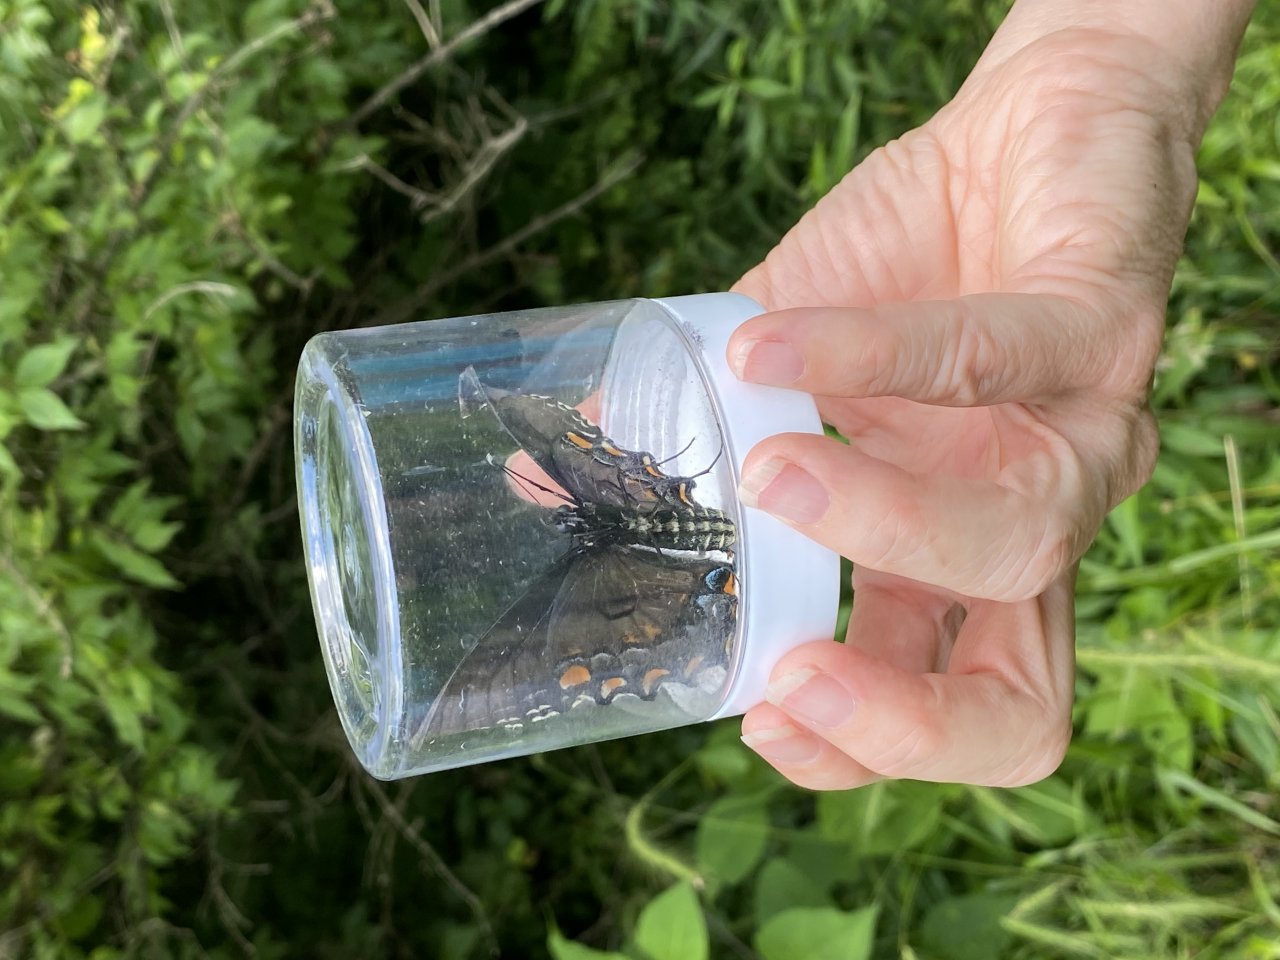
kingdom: Animalia
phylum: Arthropoda
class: Insecta
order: Lepidoptera
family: Papilionidae
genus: Pterourus
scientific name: Pterourus glaucus
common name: Eastern Tiger Swallowtail
